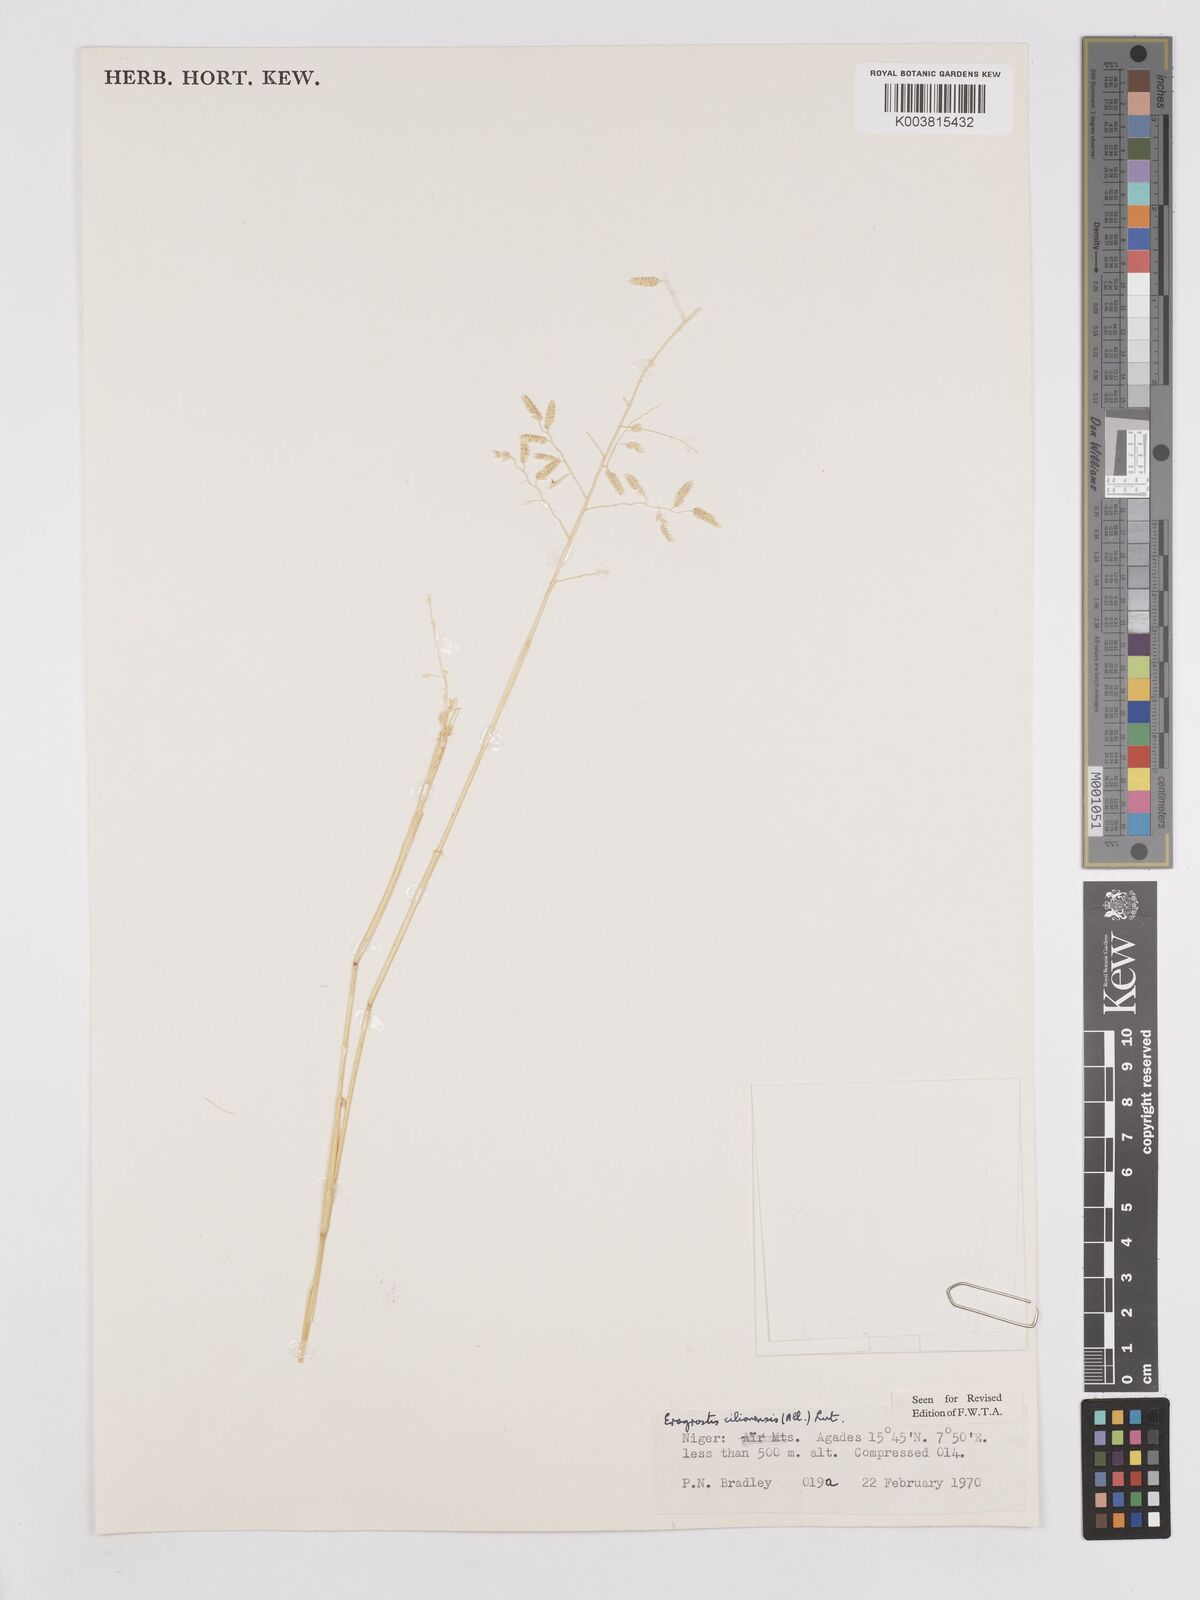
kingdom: Plantae
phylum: Tracheophyta
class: Liliopsida
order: Poales
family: Poaceae
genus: Eragrostis
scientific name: Eragrostis cilianensis
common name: Stinkgrass
